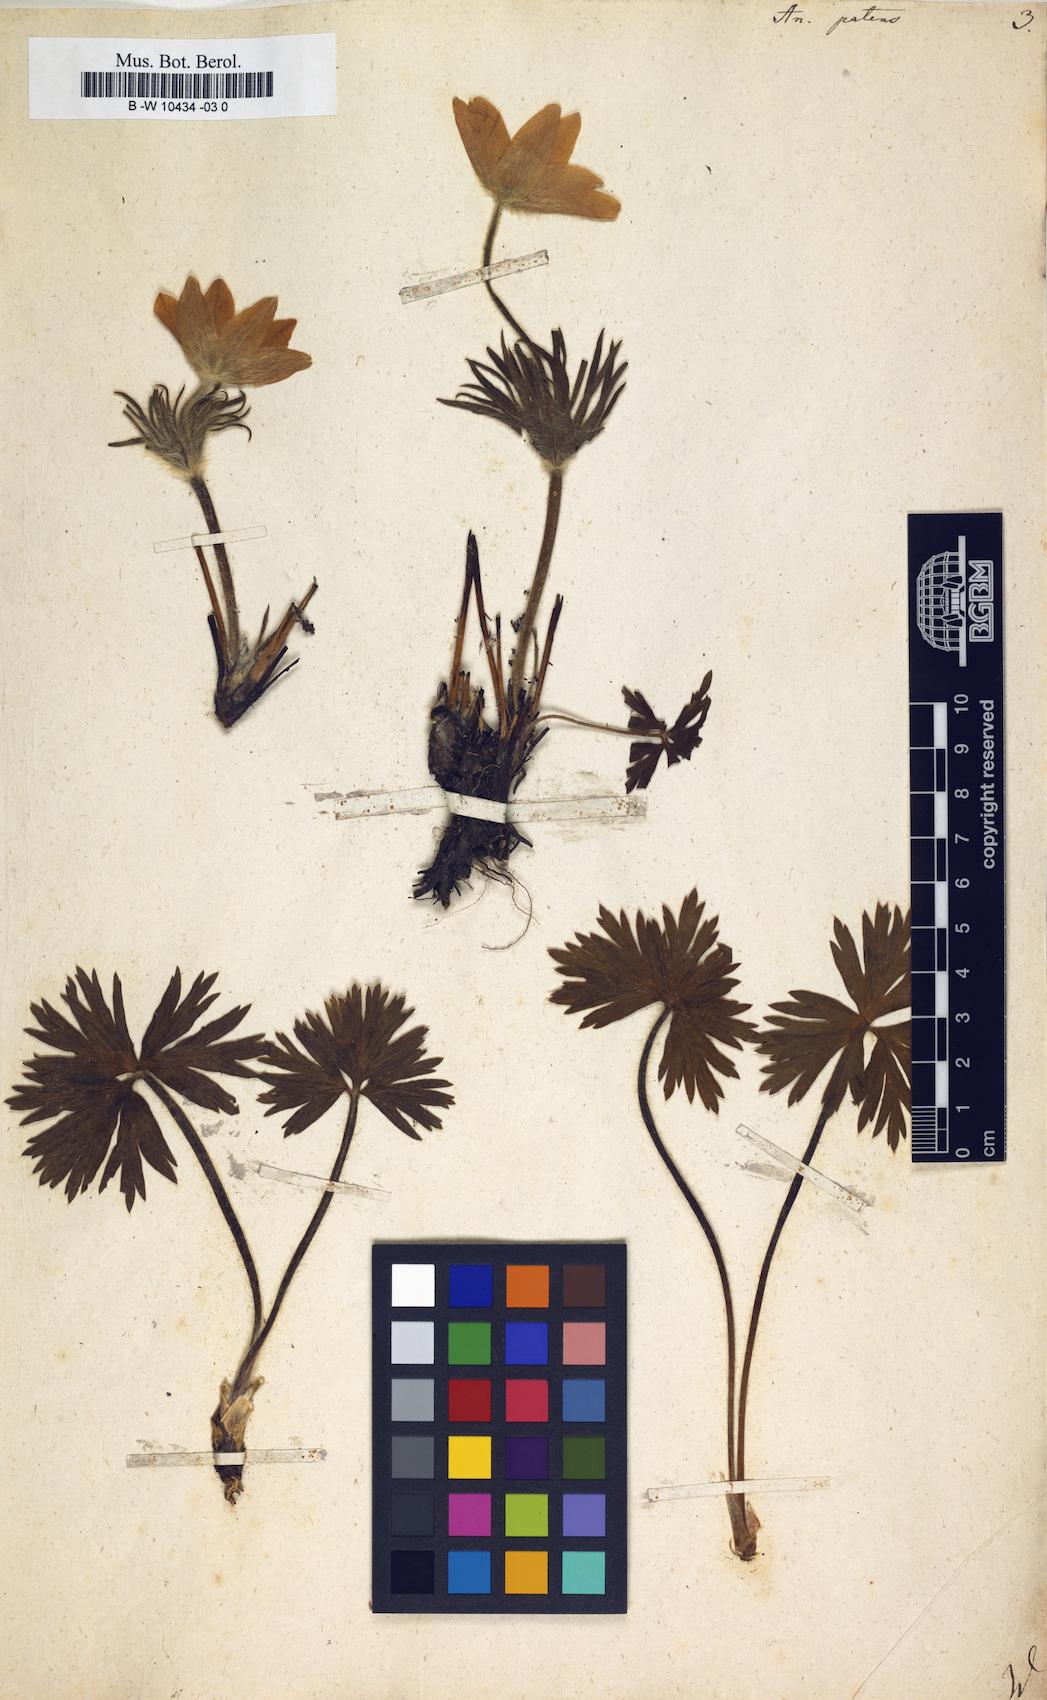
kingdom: Plantae
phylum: Tracheophyta
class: Magnoliopsida
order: Ranunculales
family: Ranunculaceae
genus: Pulsatilla
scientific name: Pulsatilla patens
